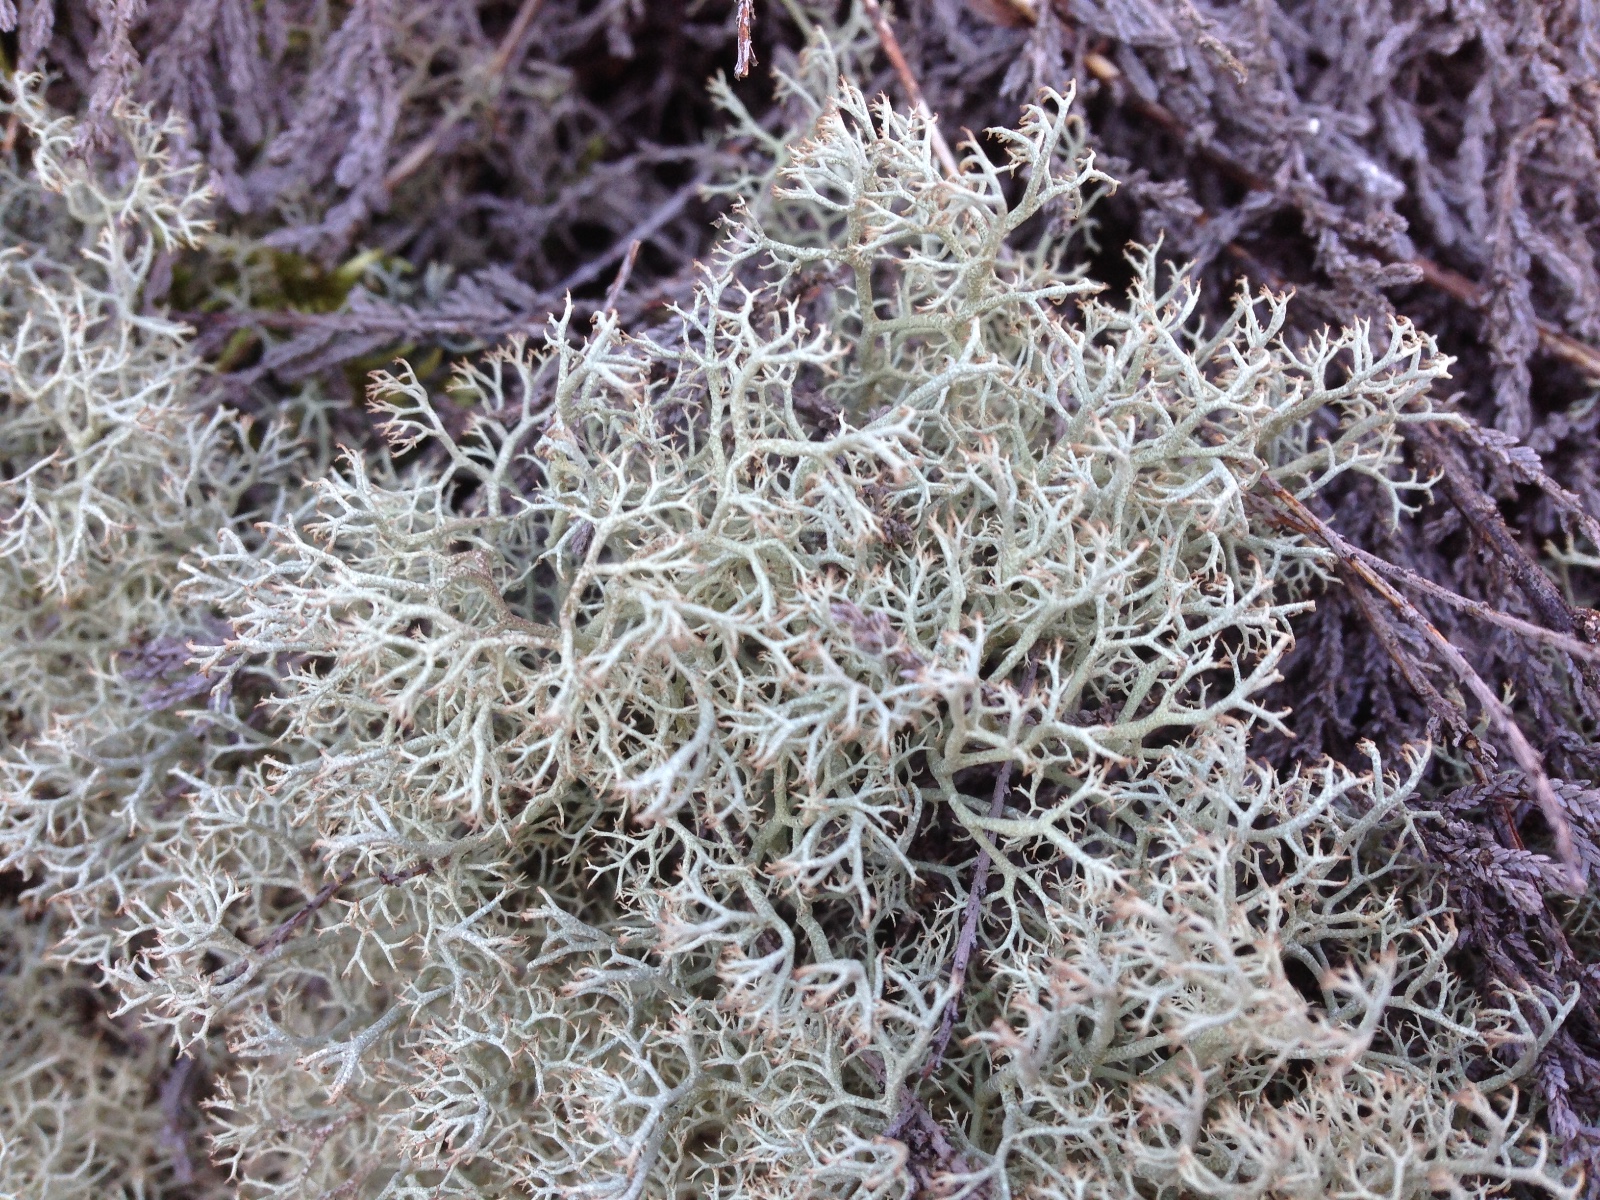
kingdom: Fungi
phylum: Ascomycota
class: Lecanoromycetes
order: Lecanorales
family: Cladoniaceae
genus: Cladonia
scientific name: Cladonia ciliata
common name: spinkel rensdyrlav
